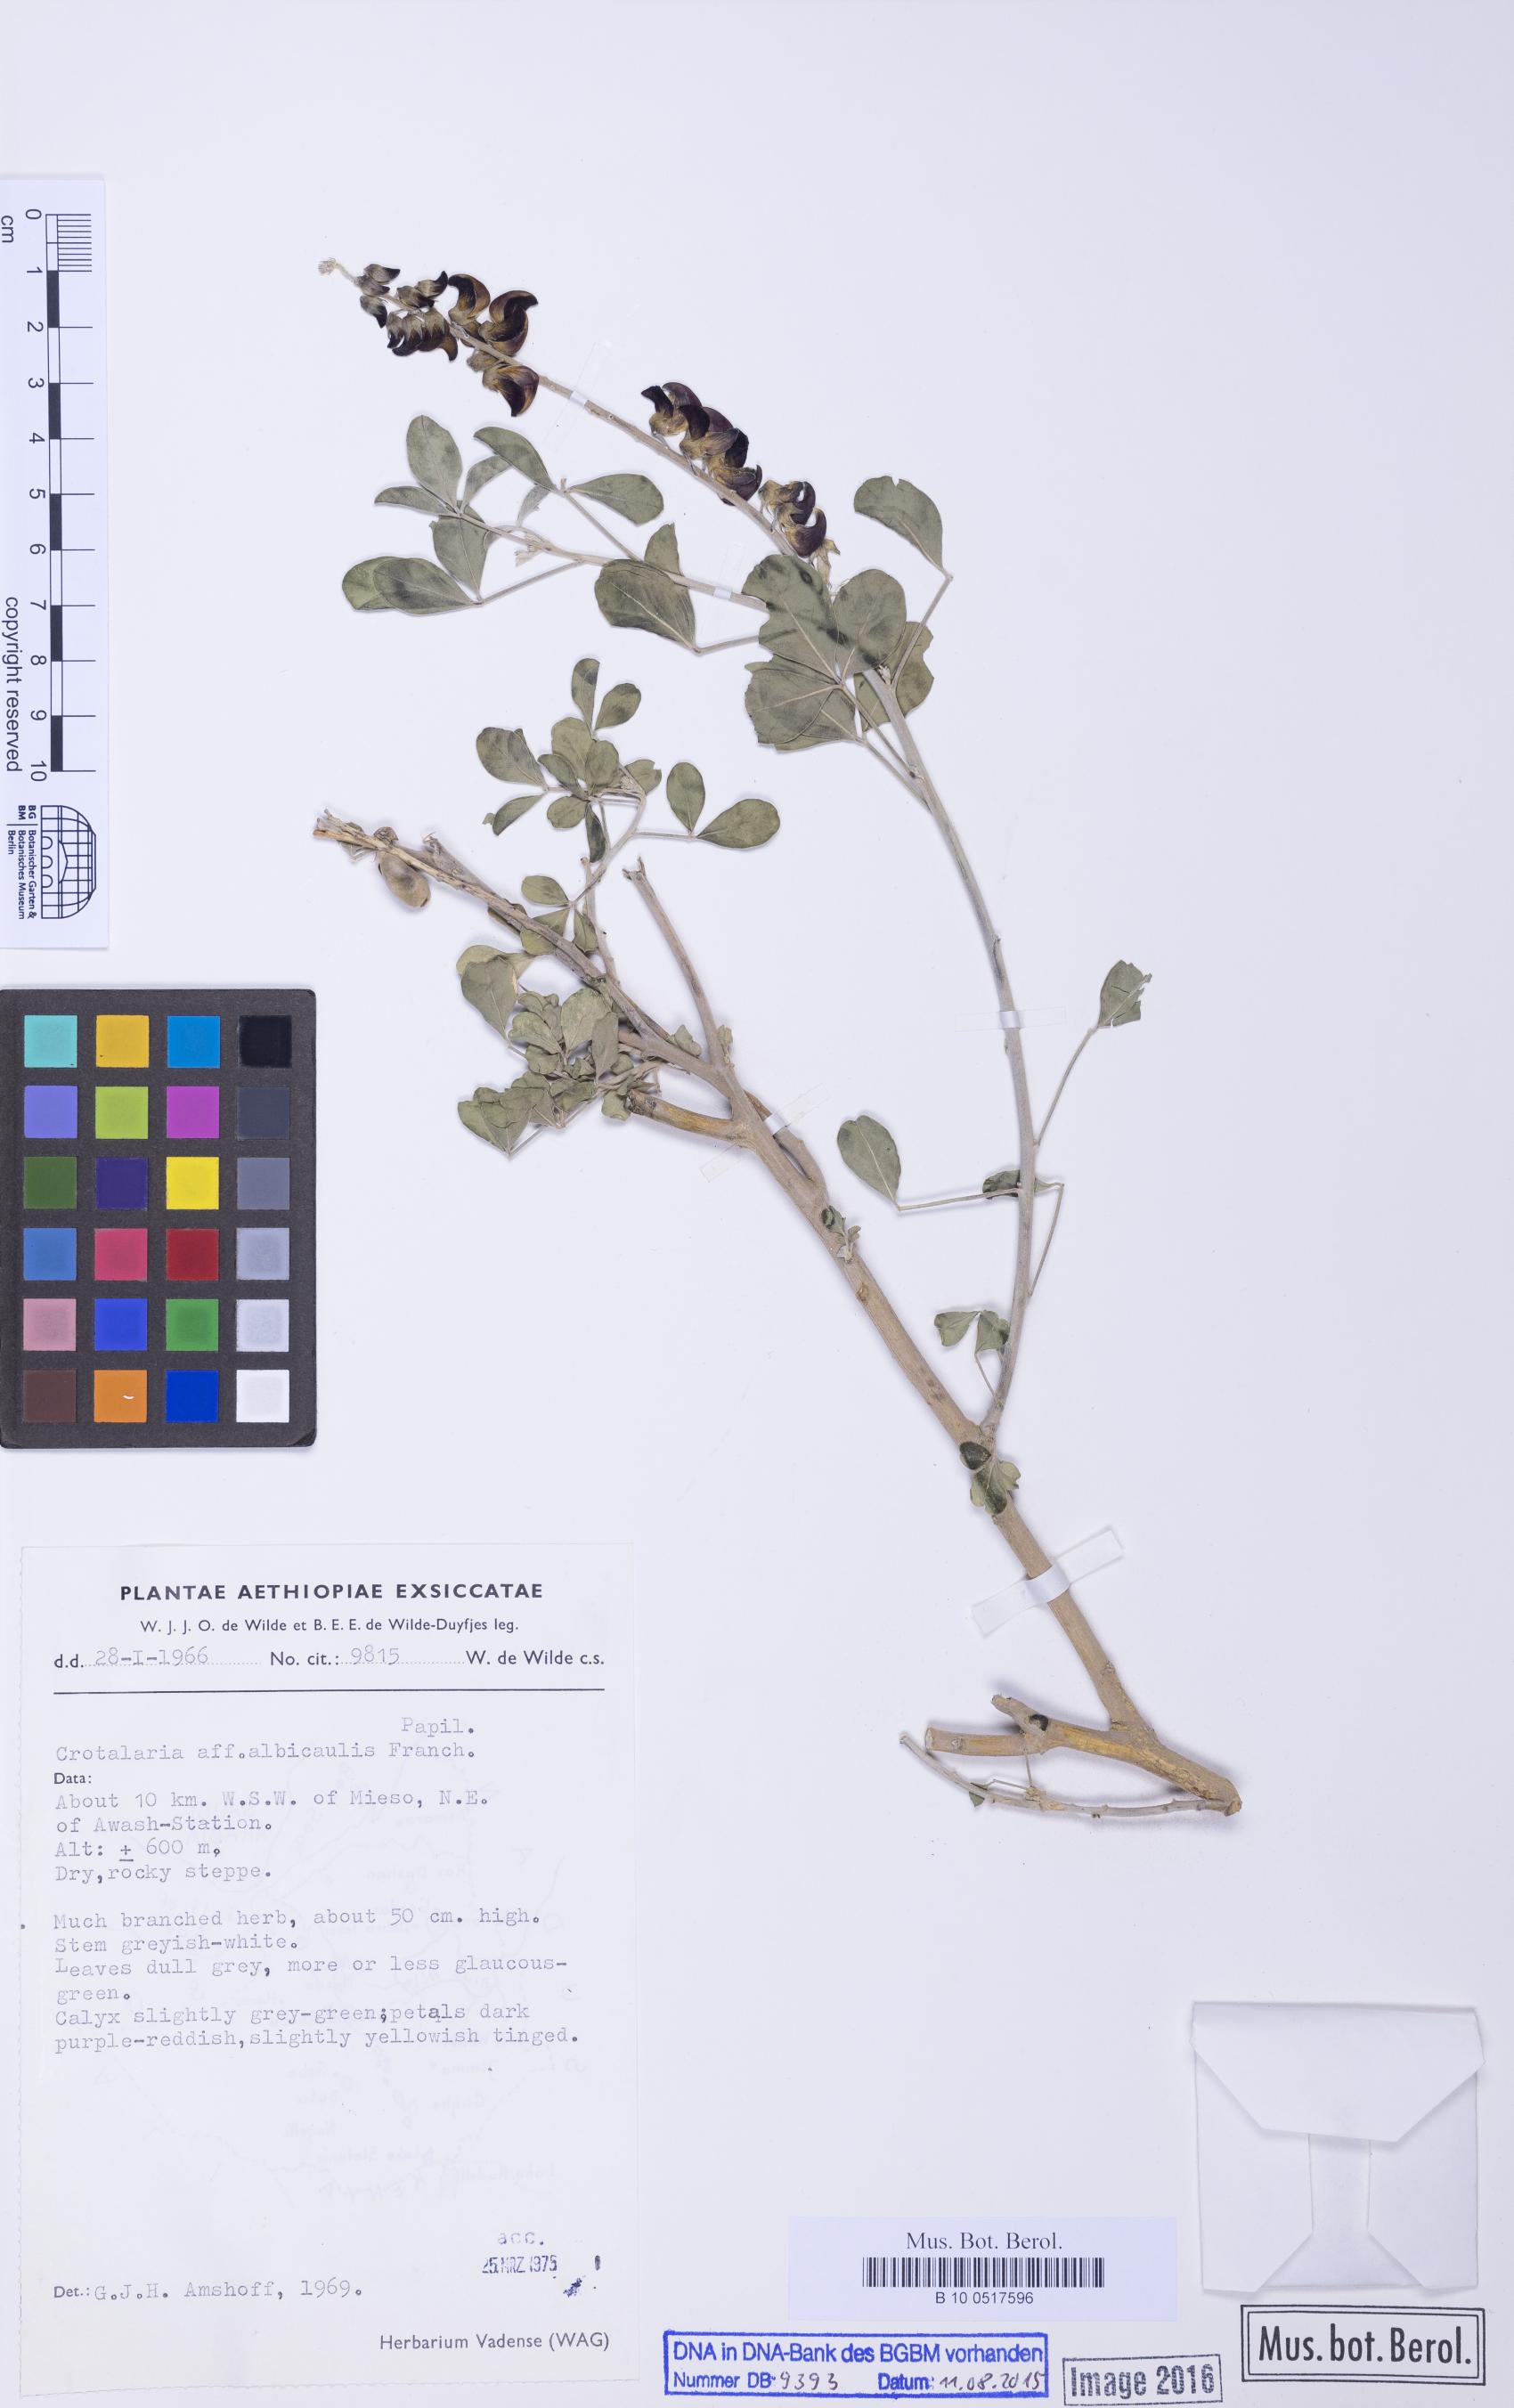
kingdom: Plantae
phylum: Tracheophyta
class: Magnoliopsida
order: Fabales
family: Fabaceae
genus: Crotalaria
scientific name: Crotalaria albicaulis
